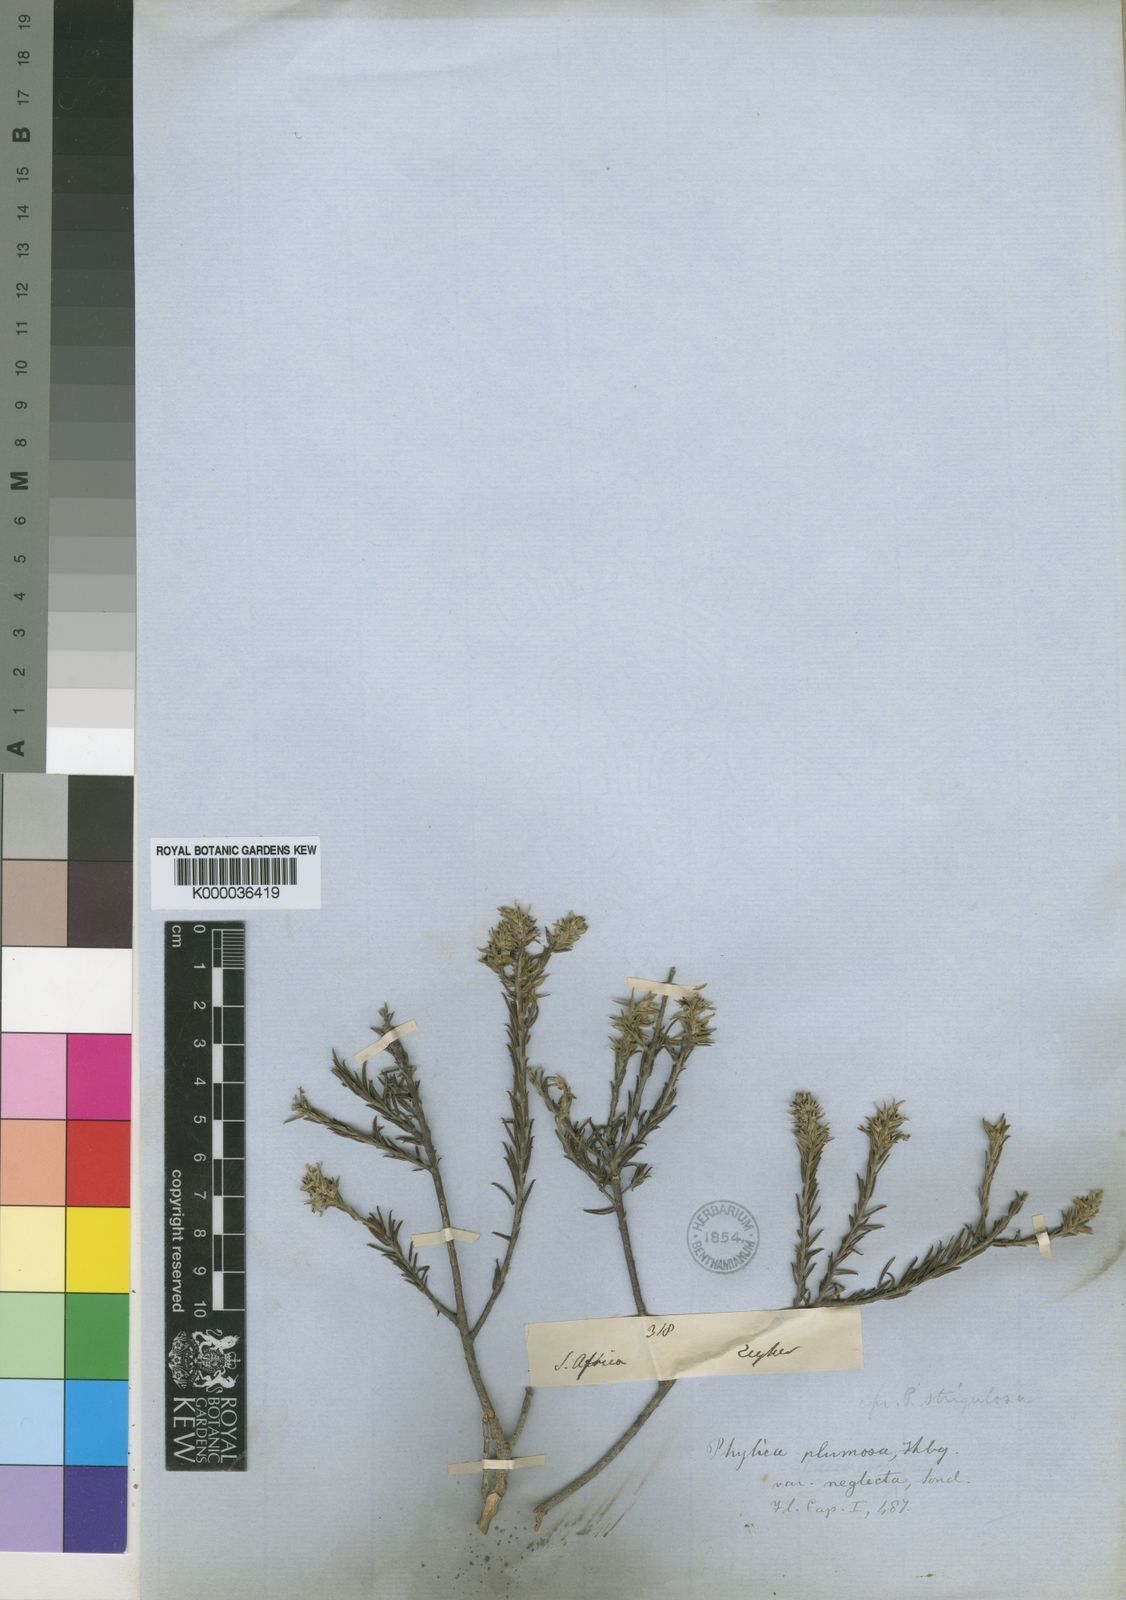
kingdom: Plantae
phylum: Tracheophyta
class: Magnoliopsida
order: Rosales
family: Rhamnaceae
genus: Phylica
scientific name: Phylica strigulosa
